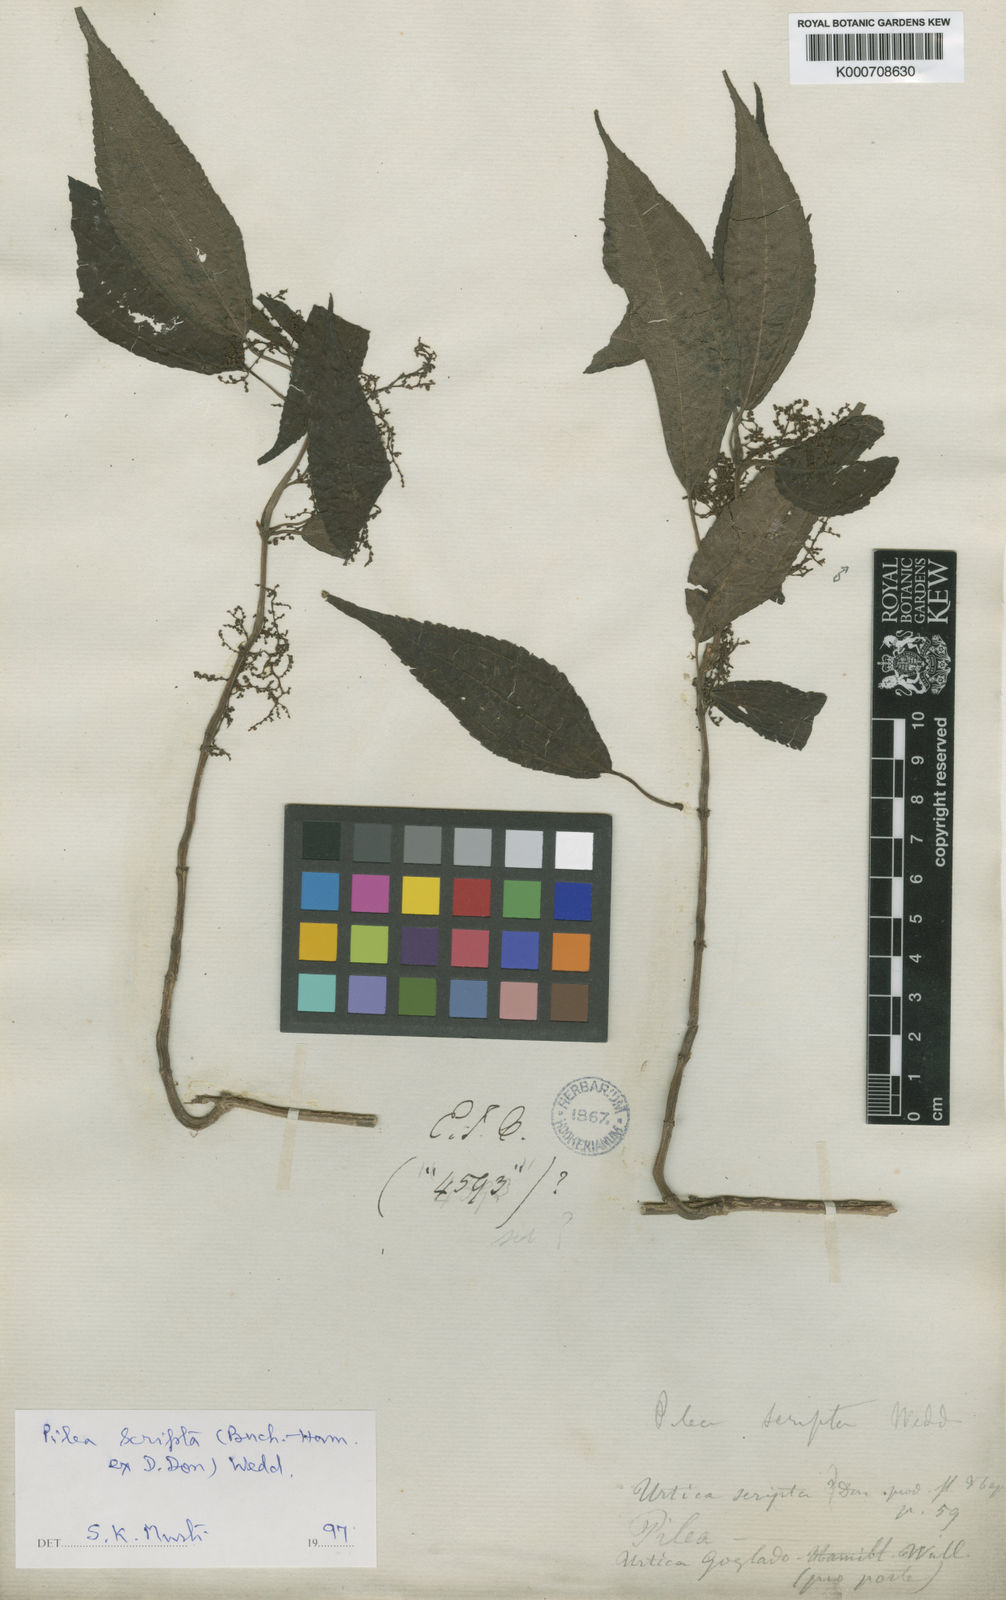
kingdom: Plantae
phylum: Tracheophyta
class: Magnoliopsida
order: Rosales
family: Urticaceae
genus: Pilea
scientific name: Pilea scripta
